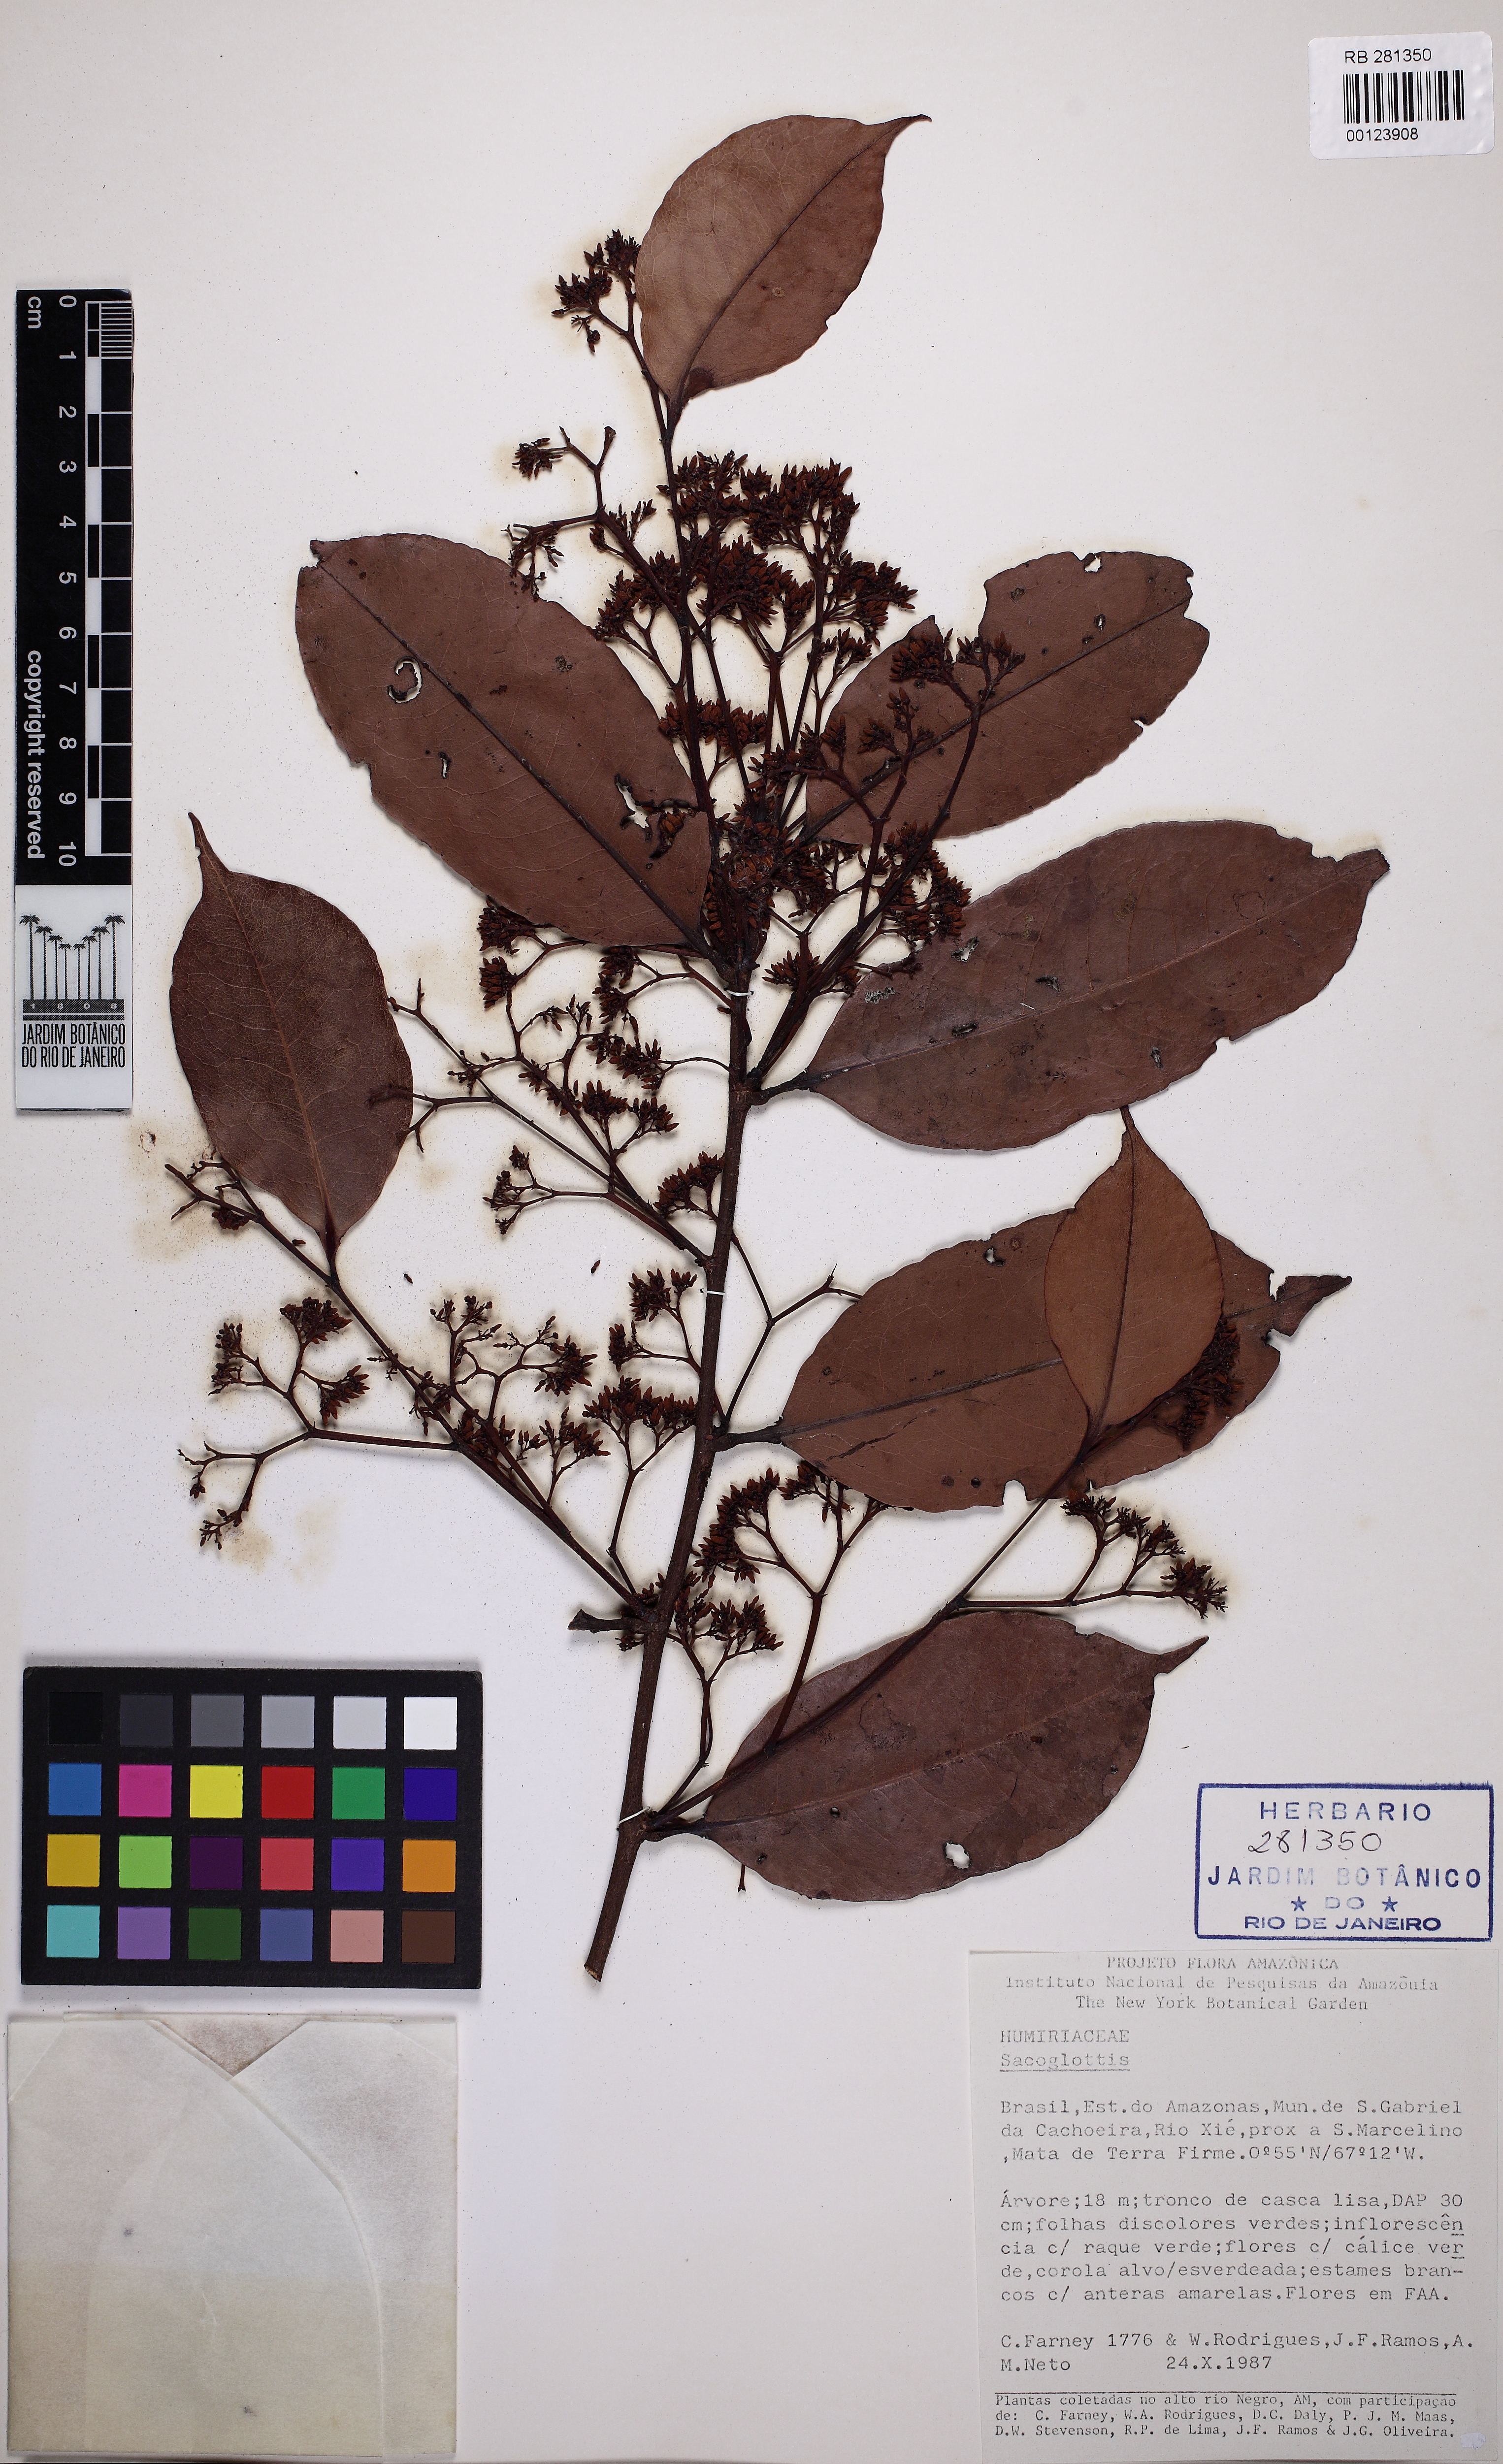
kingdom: Plantae
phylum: Tracheophyta
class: Magnoliopsida
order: Malpighiales
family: Humiriaceae
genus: Sacoglottis
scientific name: Sacoglottis guianensis
